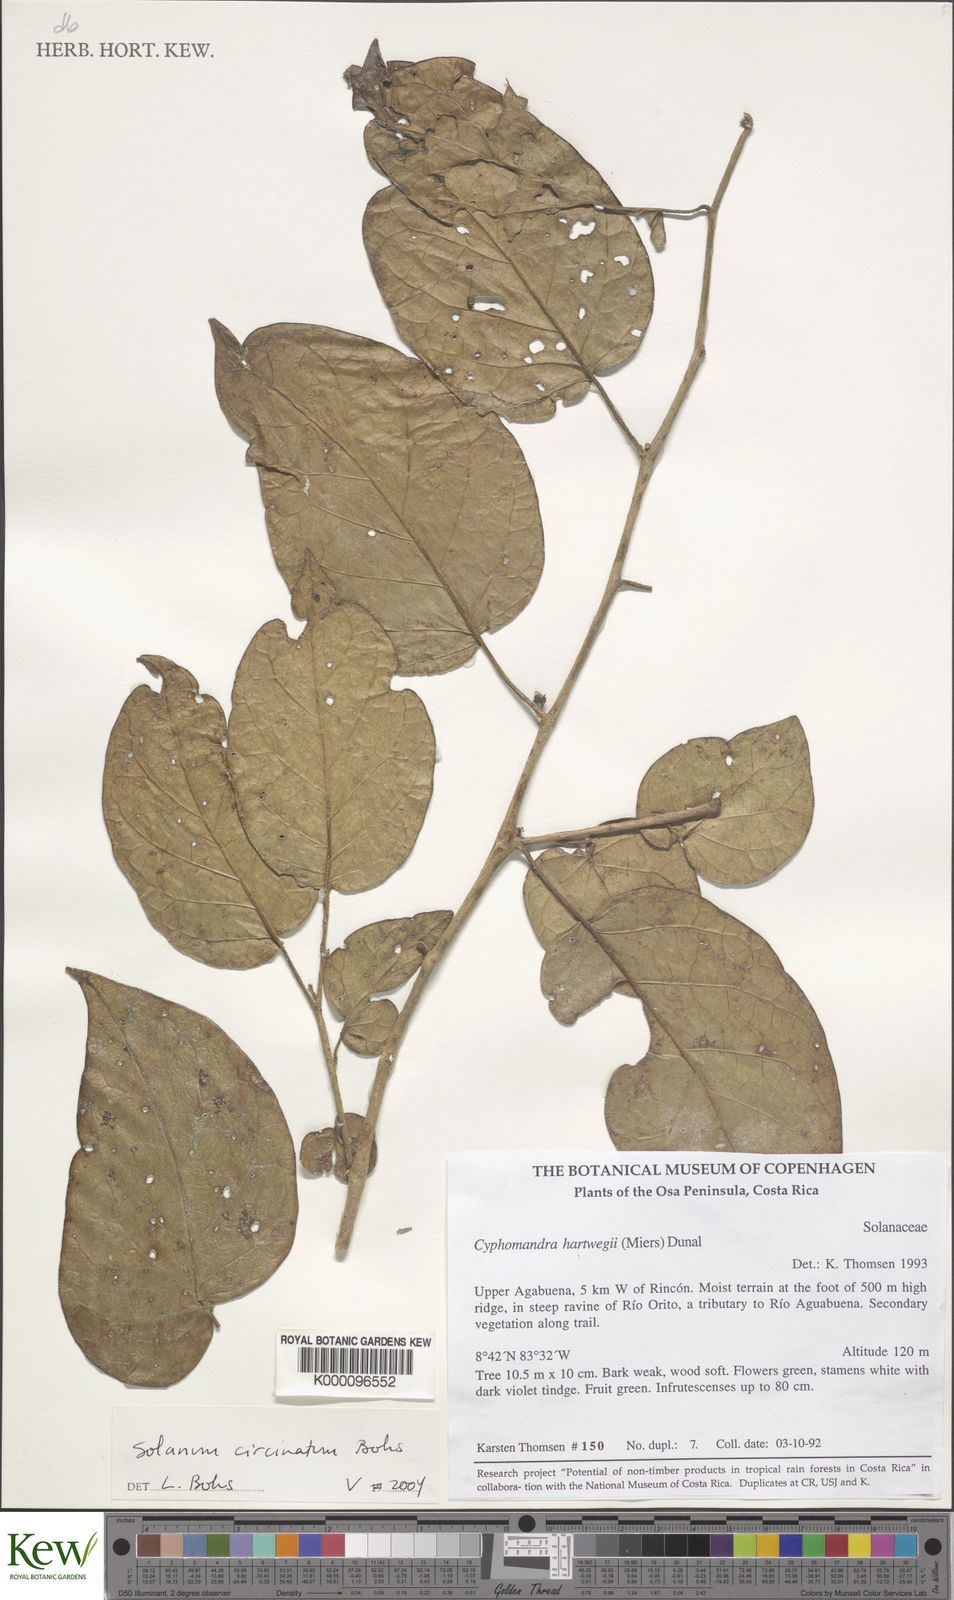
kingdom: Plantae
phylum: Tracheophyta
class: Magnoliopsida
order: Solanales
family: Solanaceae
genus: Solanum
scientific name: Solanum
